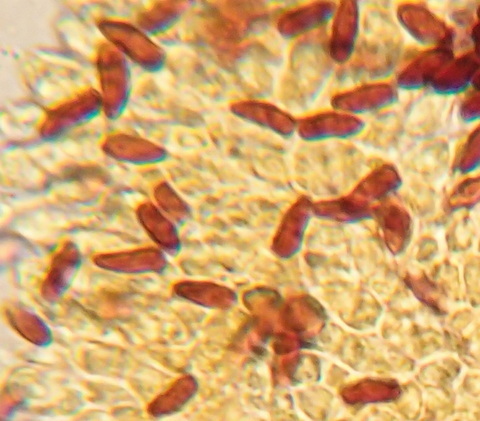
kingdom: Fungi
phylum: Basidiomycota
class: Agaricomycetes
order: Agaricales
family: Agaricaceae
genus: Echinoderma
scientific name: Echinoderma asperum
